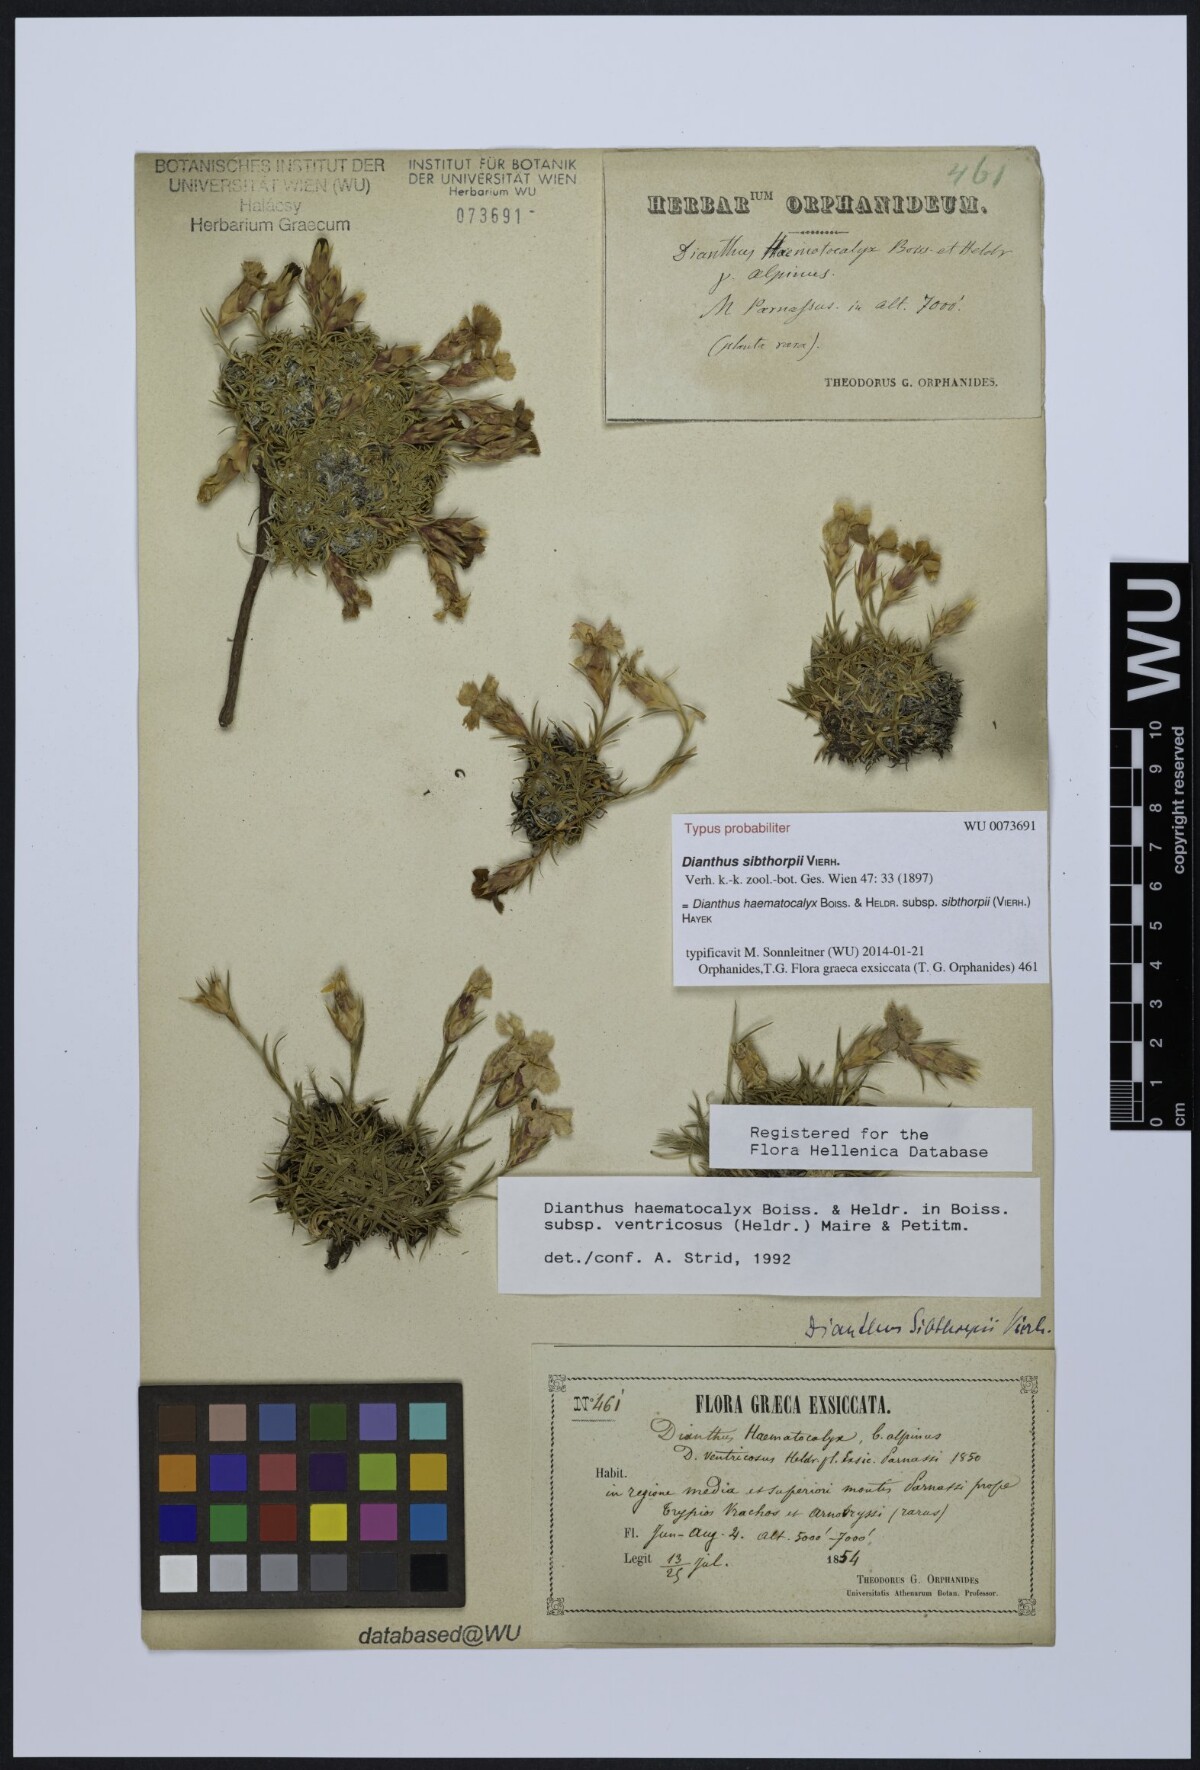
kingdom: Plantae
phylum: Tracheophyta
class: Magnoliopsida
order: Caryophyllales
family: Caryophyllaceae
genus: Dianthus
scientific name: Dianthus haematocalyx
